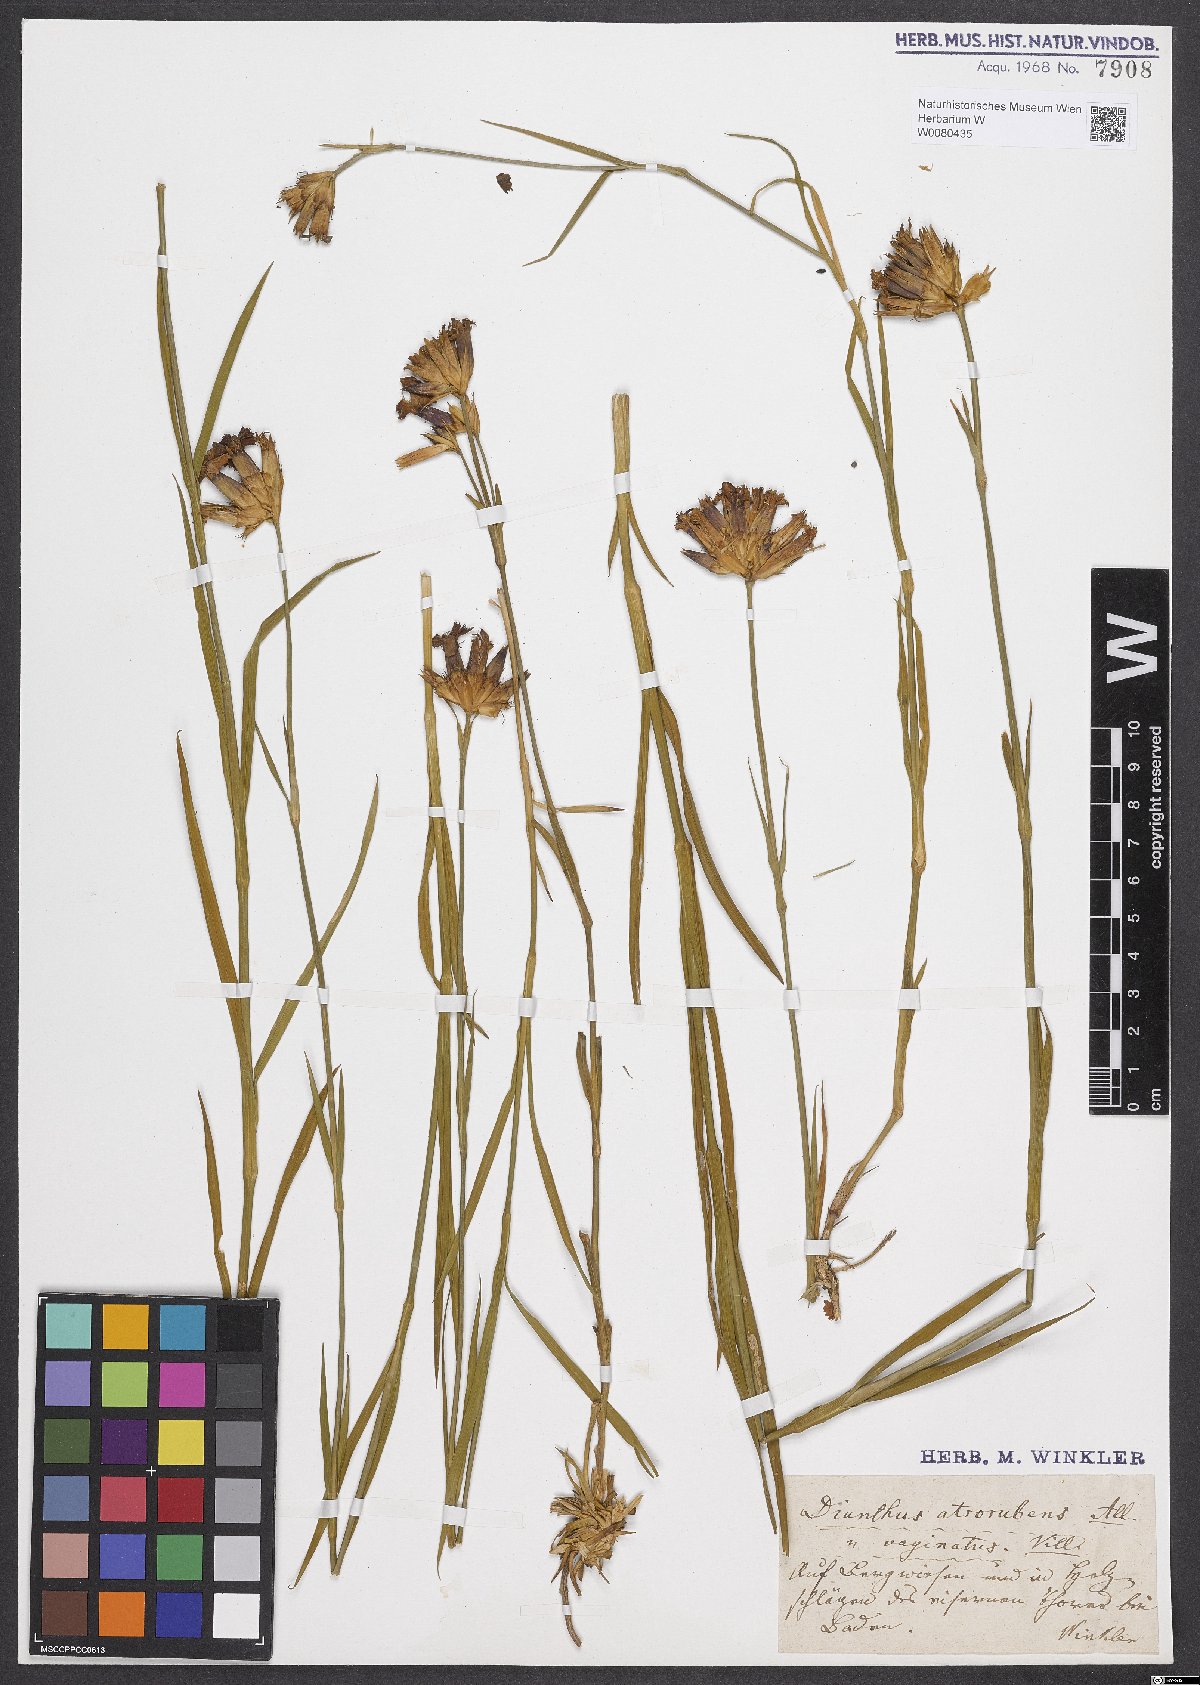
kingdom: Plantae
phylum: Tracheophyta
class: Magnoliopsida
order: Caryophyllales
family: Caryophyllaceae
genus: Dianthus
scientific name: Dianthus carthusianorum
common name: Carthusian pink
